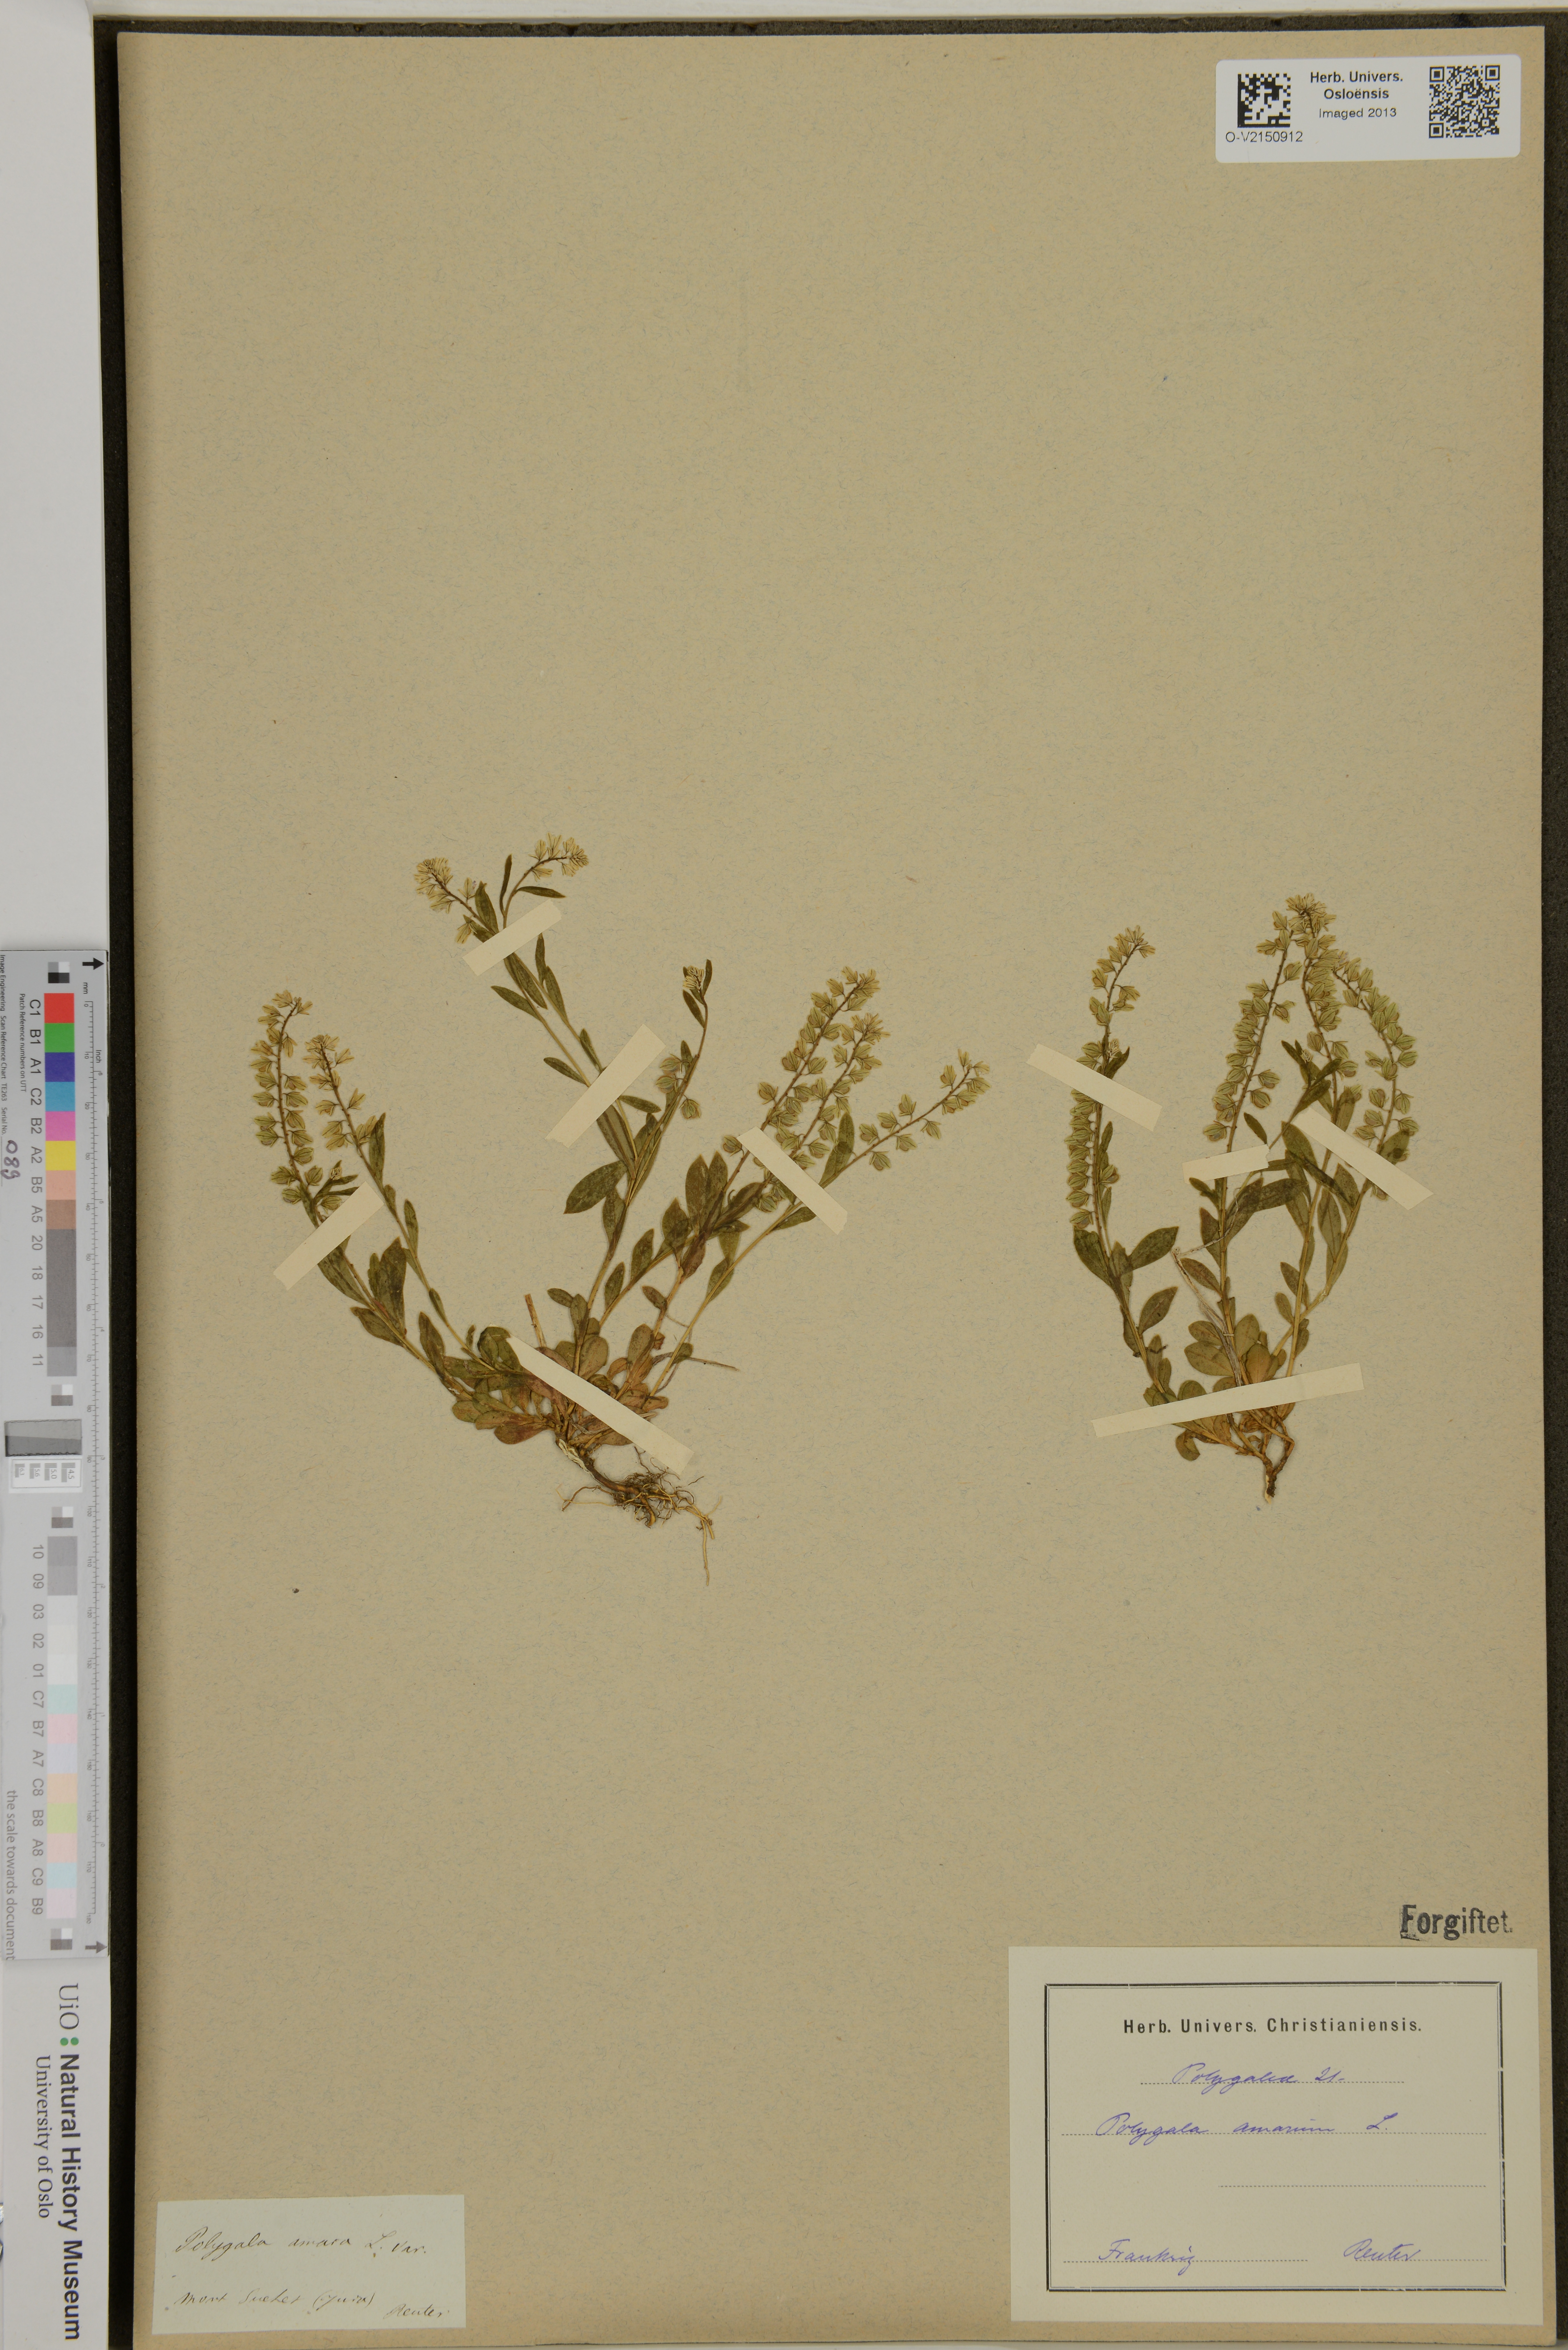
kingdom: Plantae
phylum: Tracheophyta
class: Magnoliopsida
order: Fabales
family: Polygalaceae
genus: Polygala
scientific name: Polygala amarella
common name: Dwarf milkwort
